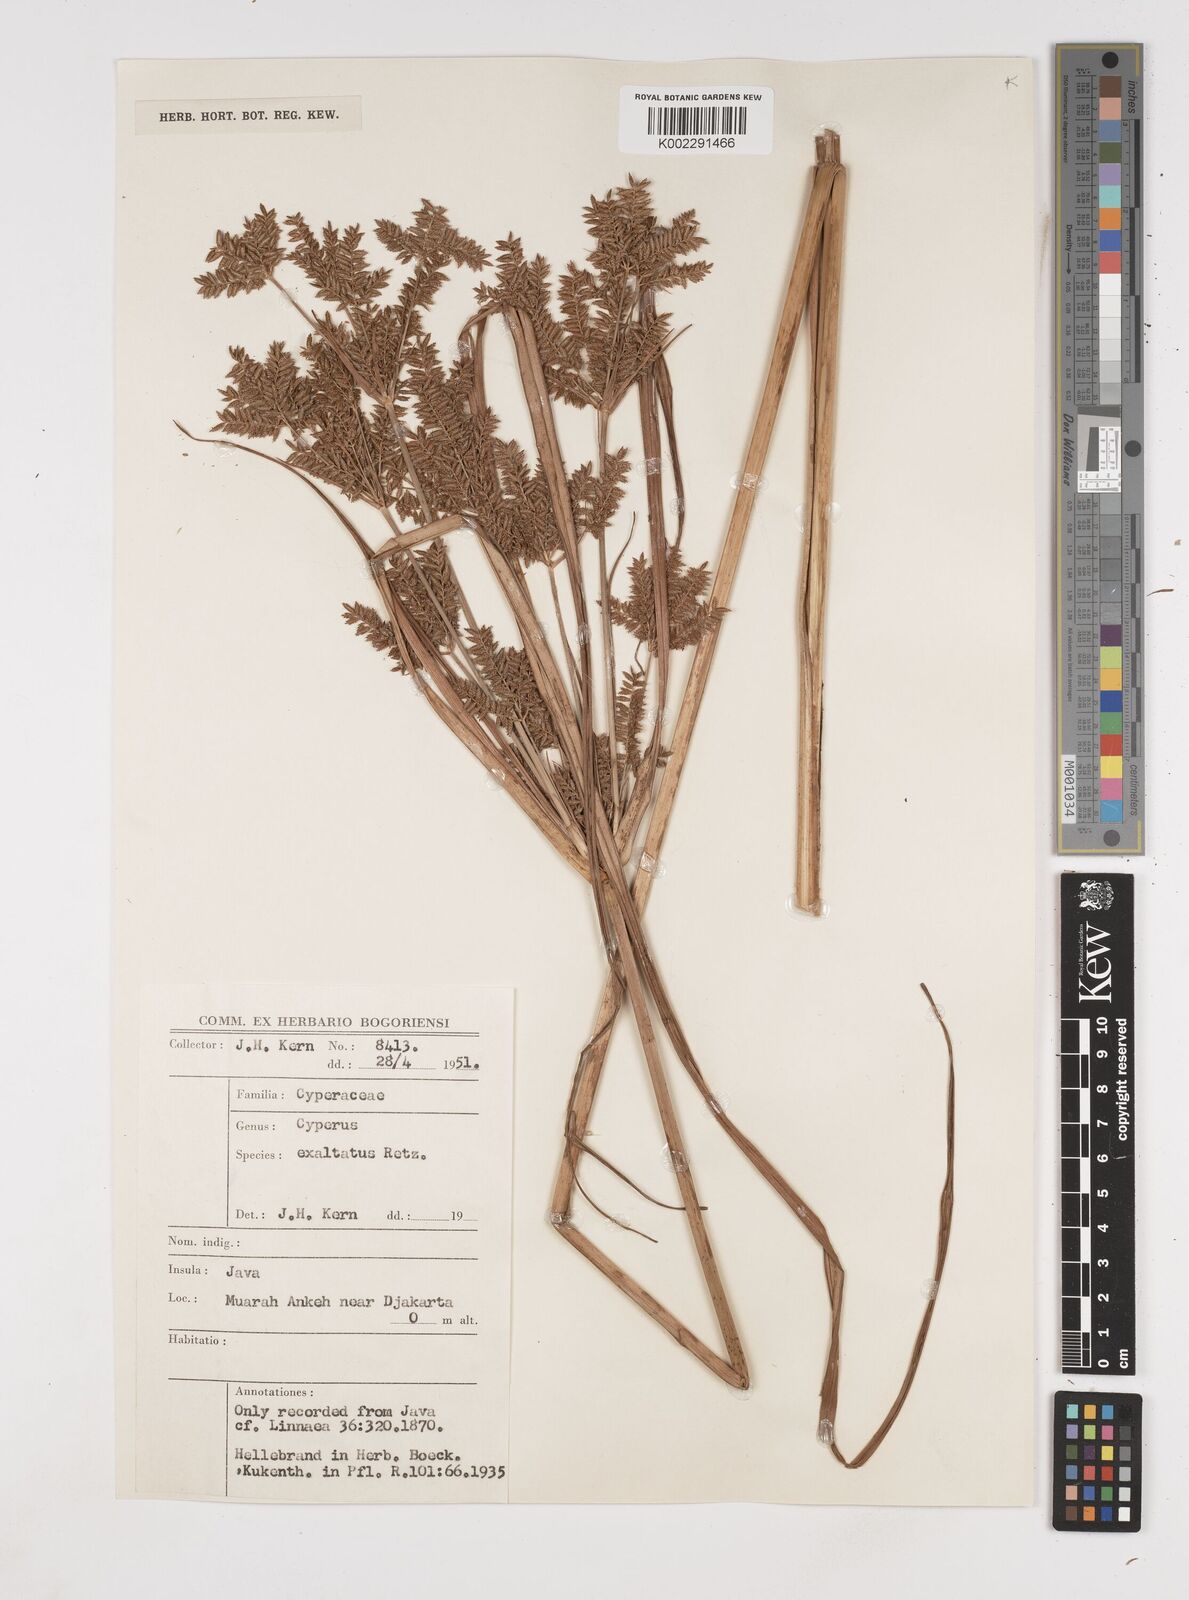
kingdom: Plantae
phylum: Tracheophyta
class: Liliopsida
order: Poales
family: Cyperaceae
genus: Cyperus
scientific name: Cyperus exaltatus
